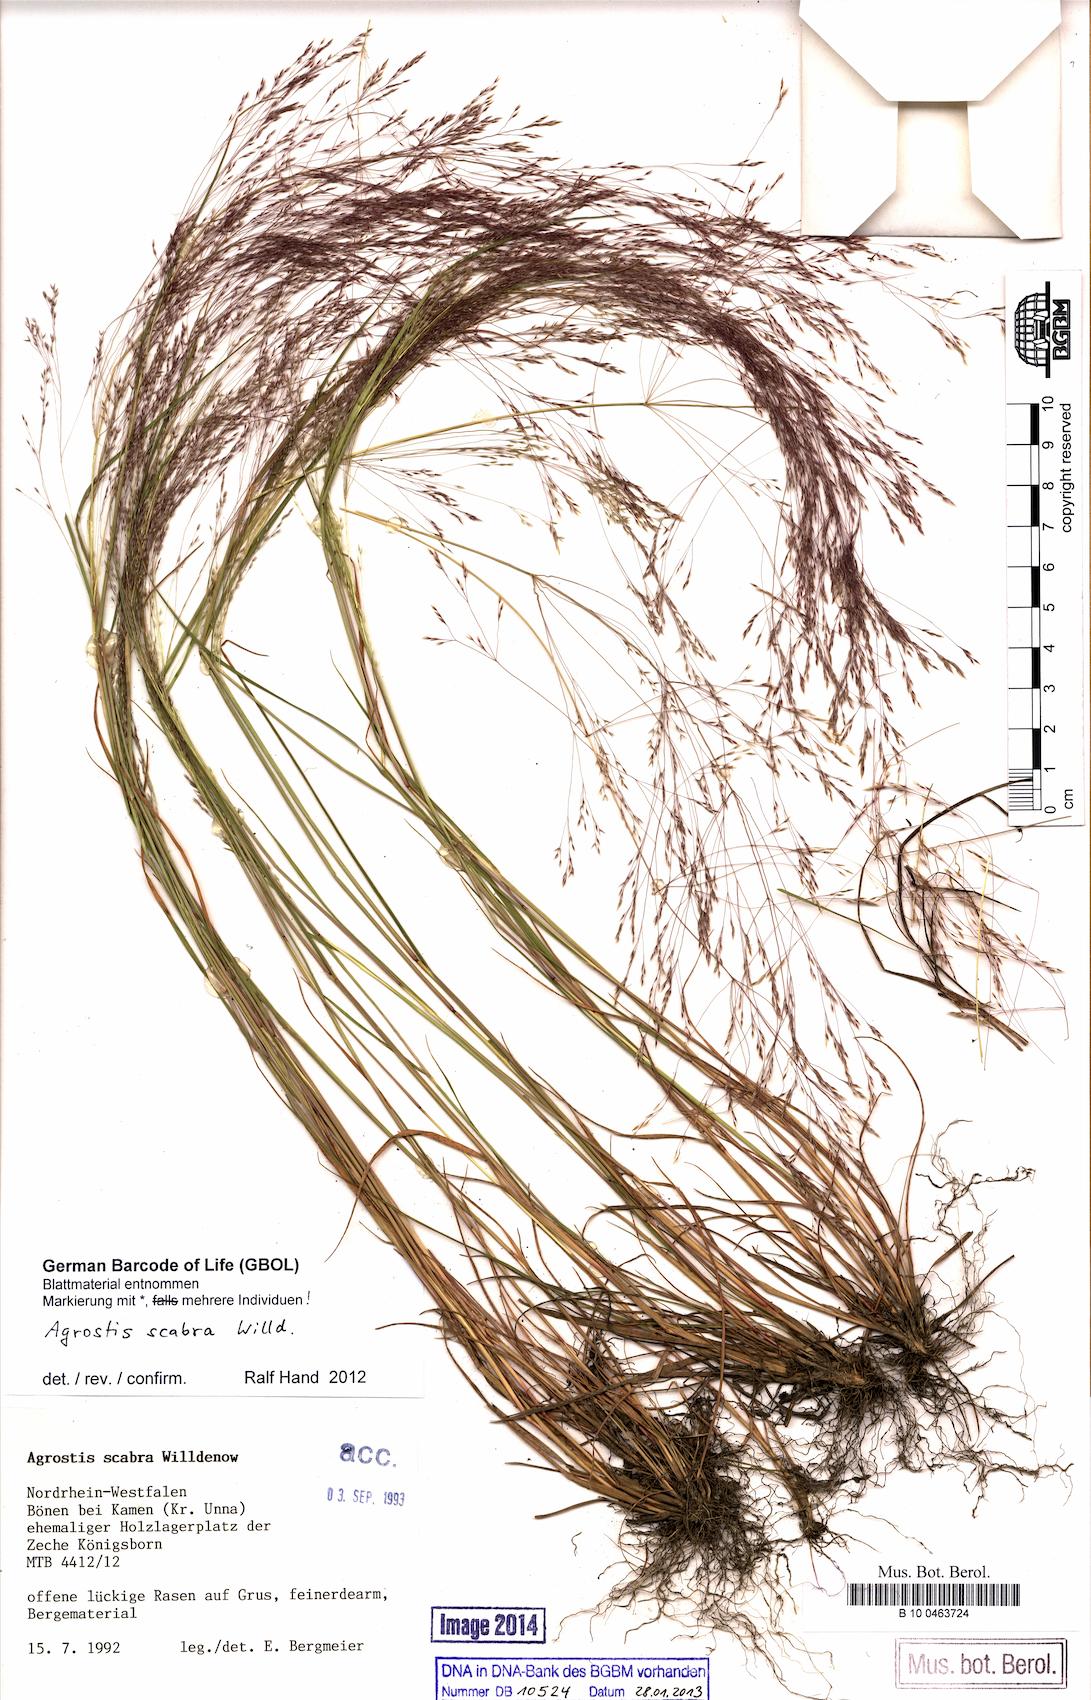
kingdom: Plantae
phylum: Tracheophyta
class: Liliopsida
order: Poales
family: Poaceae
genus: Agrostis
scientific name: Agrostis scabra
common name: Rough bent
